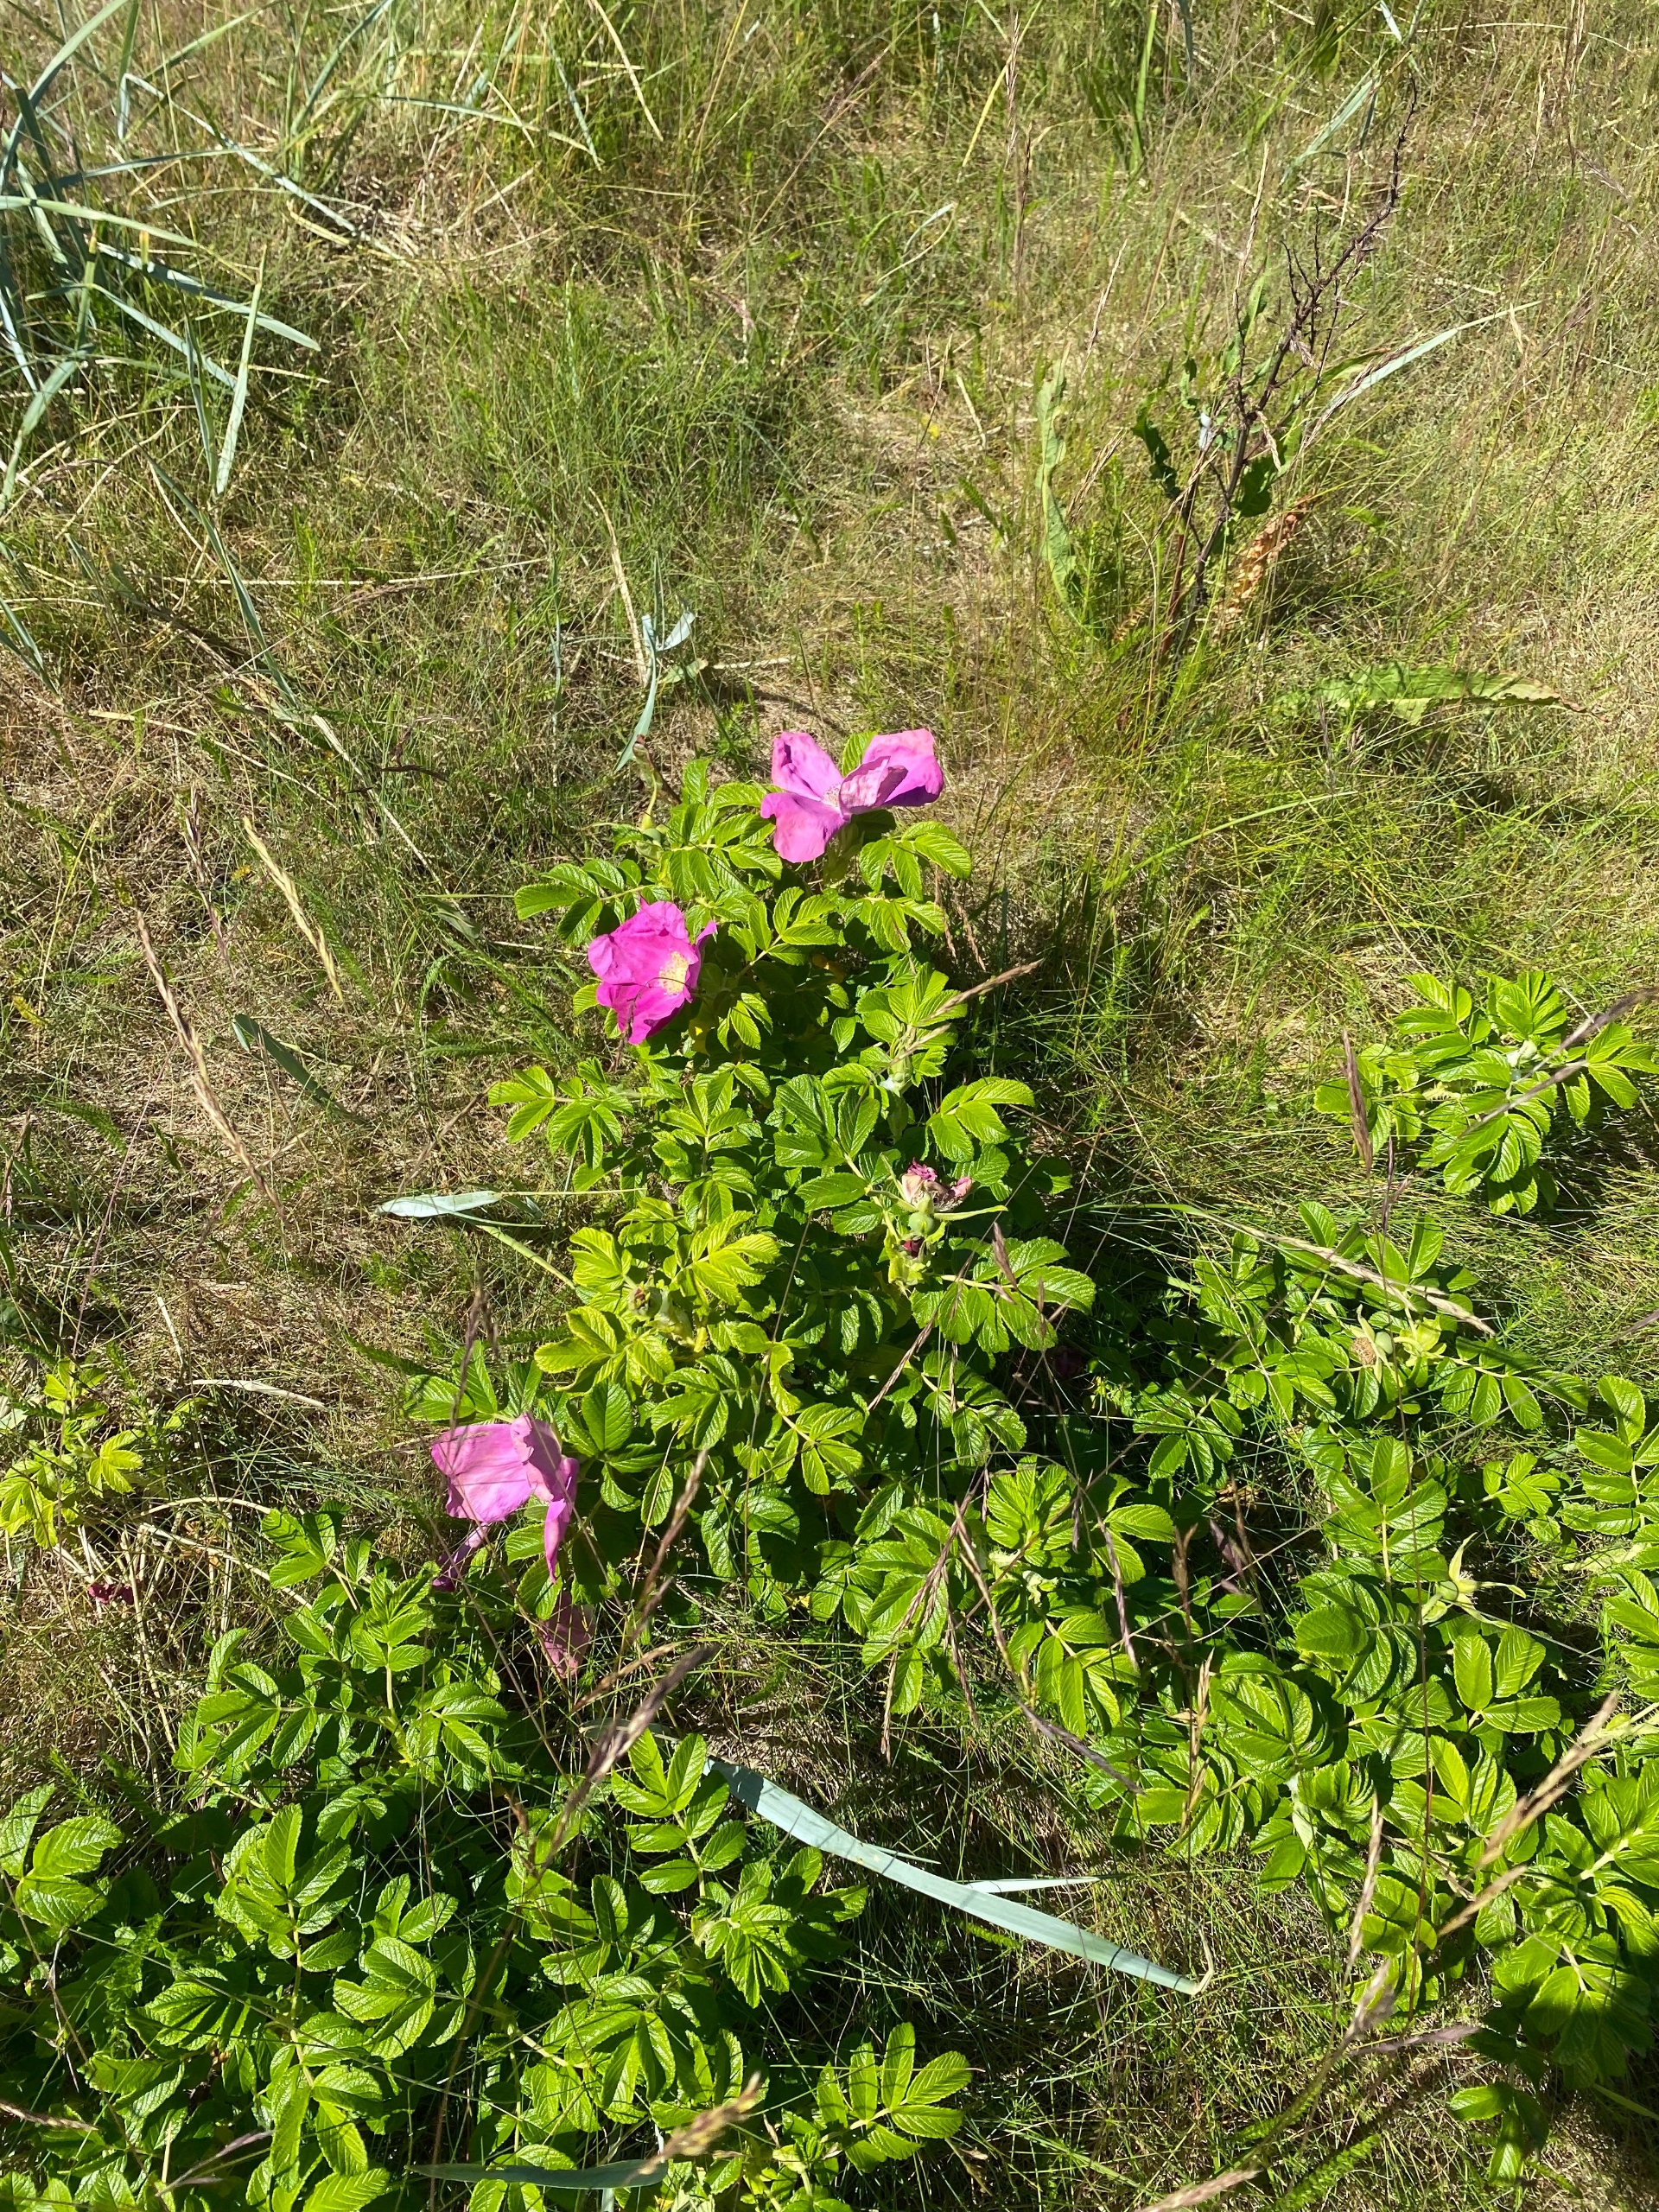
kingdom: Plantae
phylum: Tracheophyta
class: Magnoliopsida
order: Rosales
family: Rosaceae
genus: Rosa
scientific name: Rosa rugosa
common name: Rynket rose
